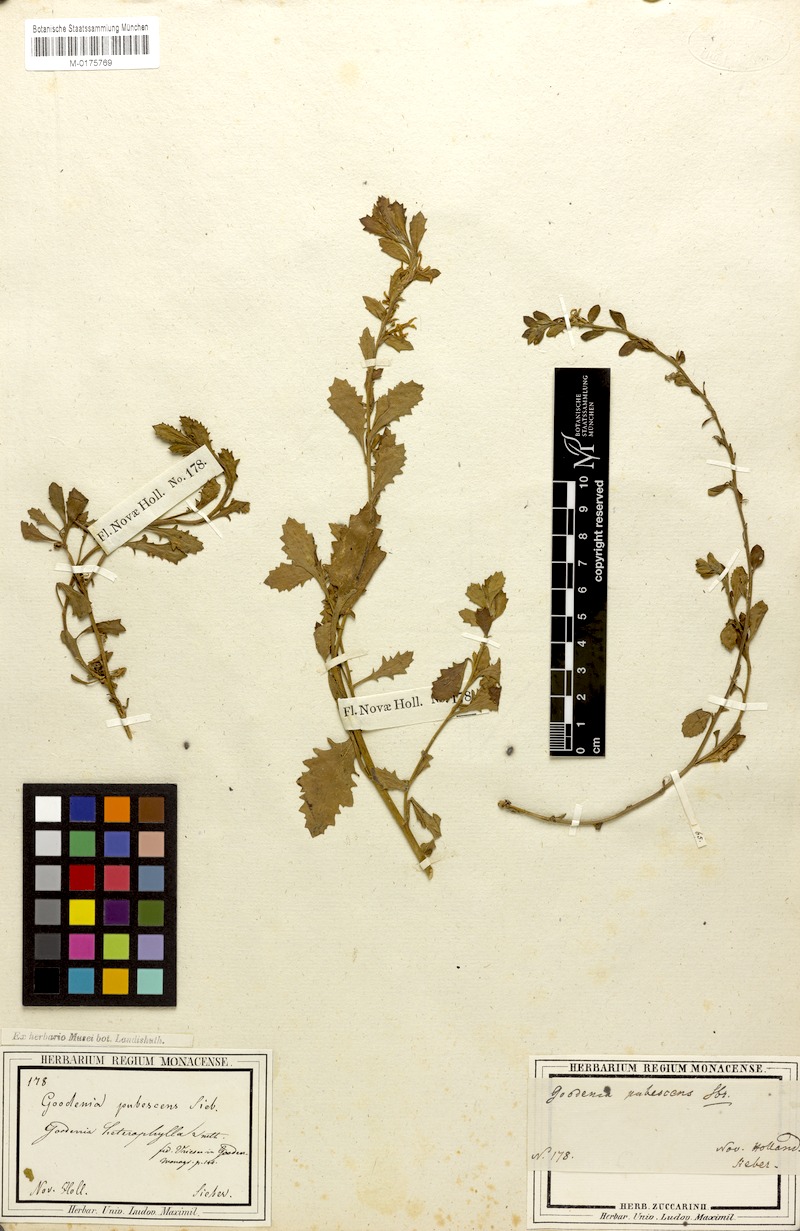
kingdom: Plantae
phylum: Tracheophyta
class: Magnoliopsida
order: Asterales
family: Goodeniaceae
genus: Scaevola
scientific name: Scaevola albida
